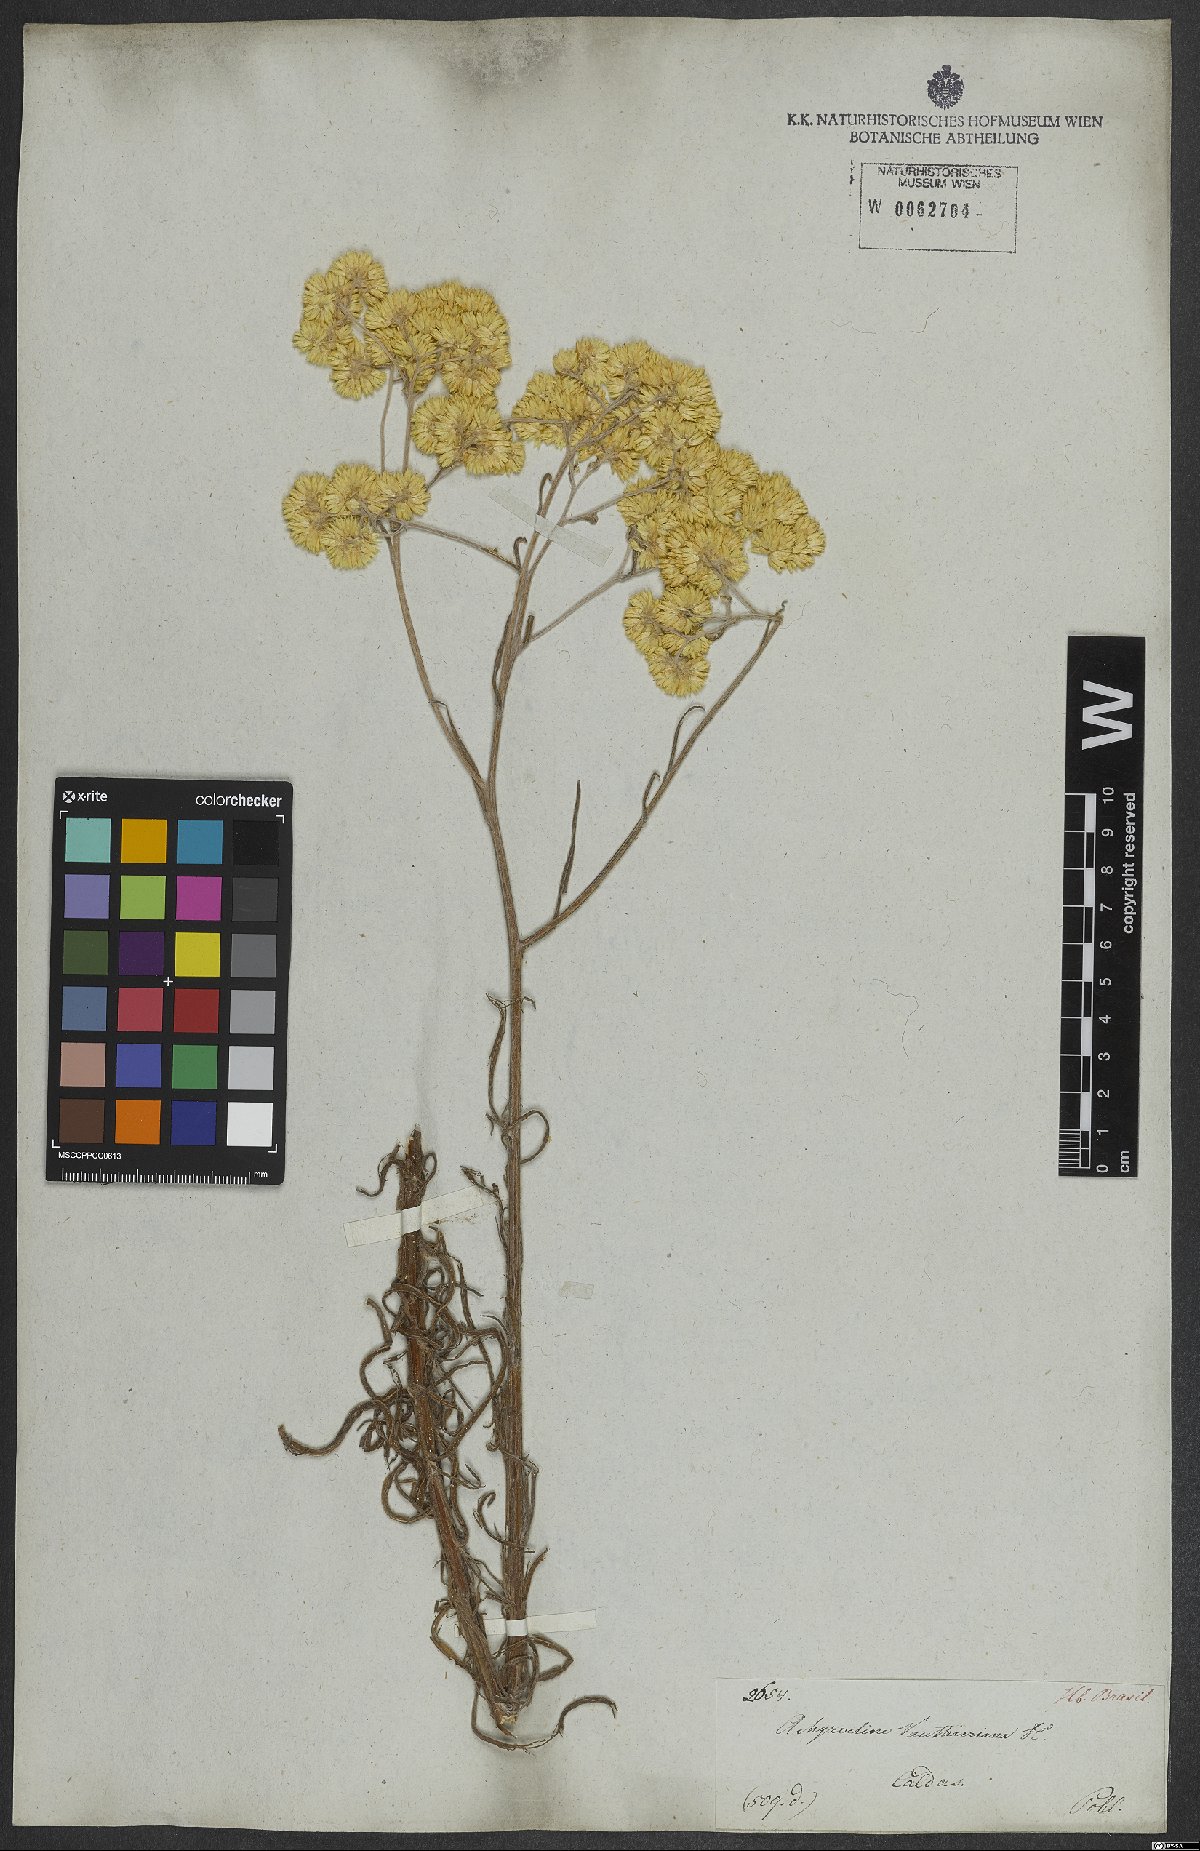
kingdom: Plantae
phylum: Tracheophyta
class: Magnoliopsida
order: Asterales
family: Asteraceae
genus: Achyrocline
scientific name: Achyrocline alata
